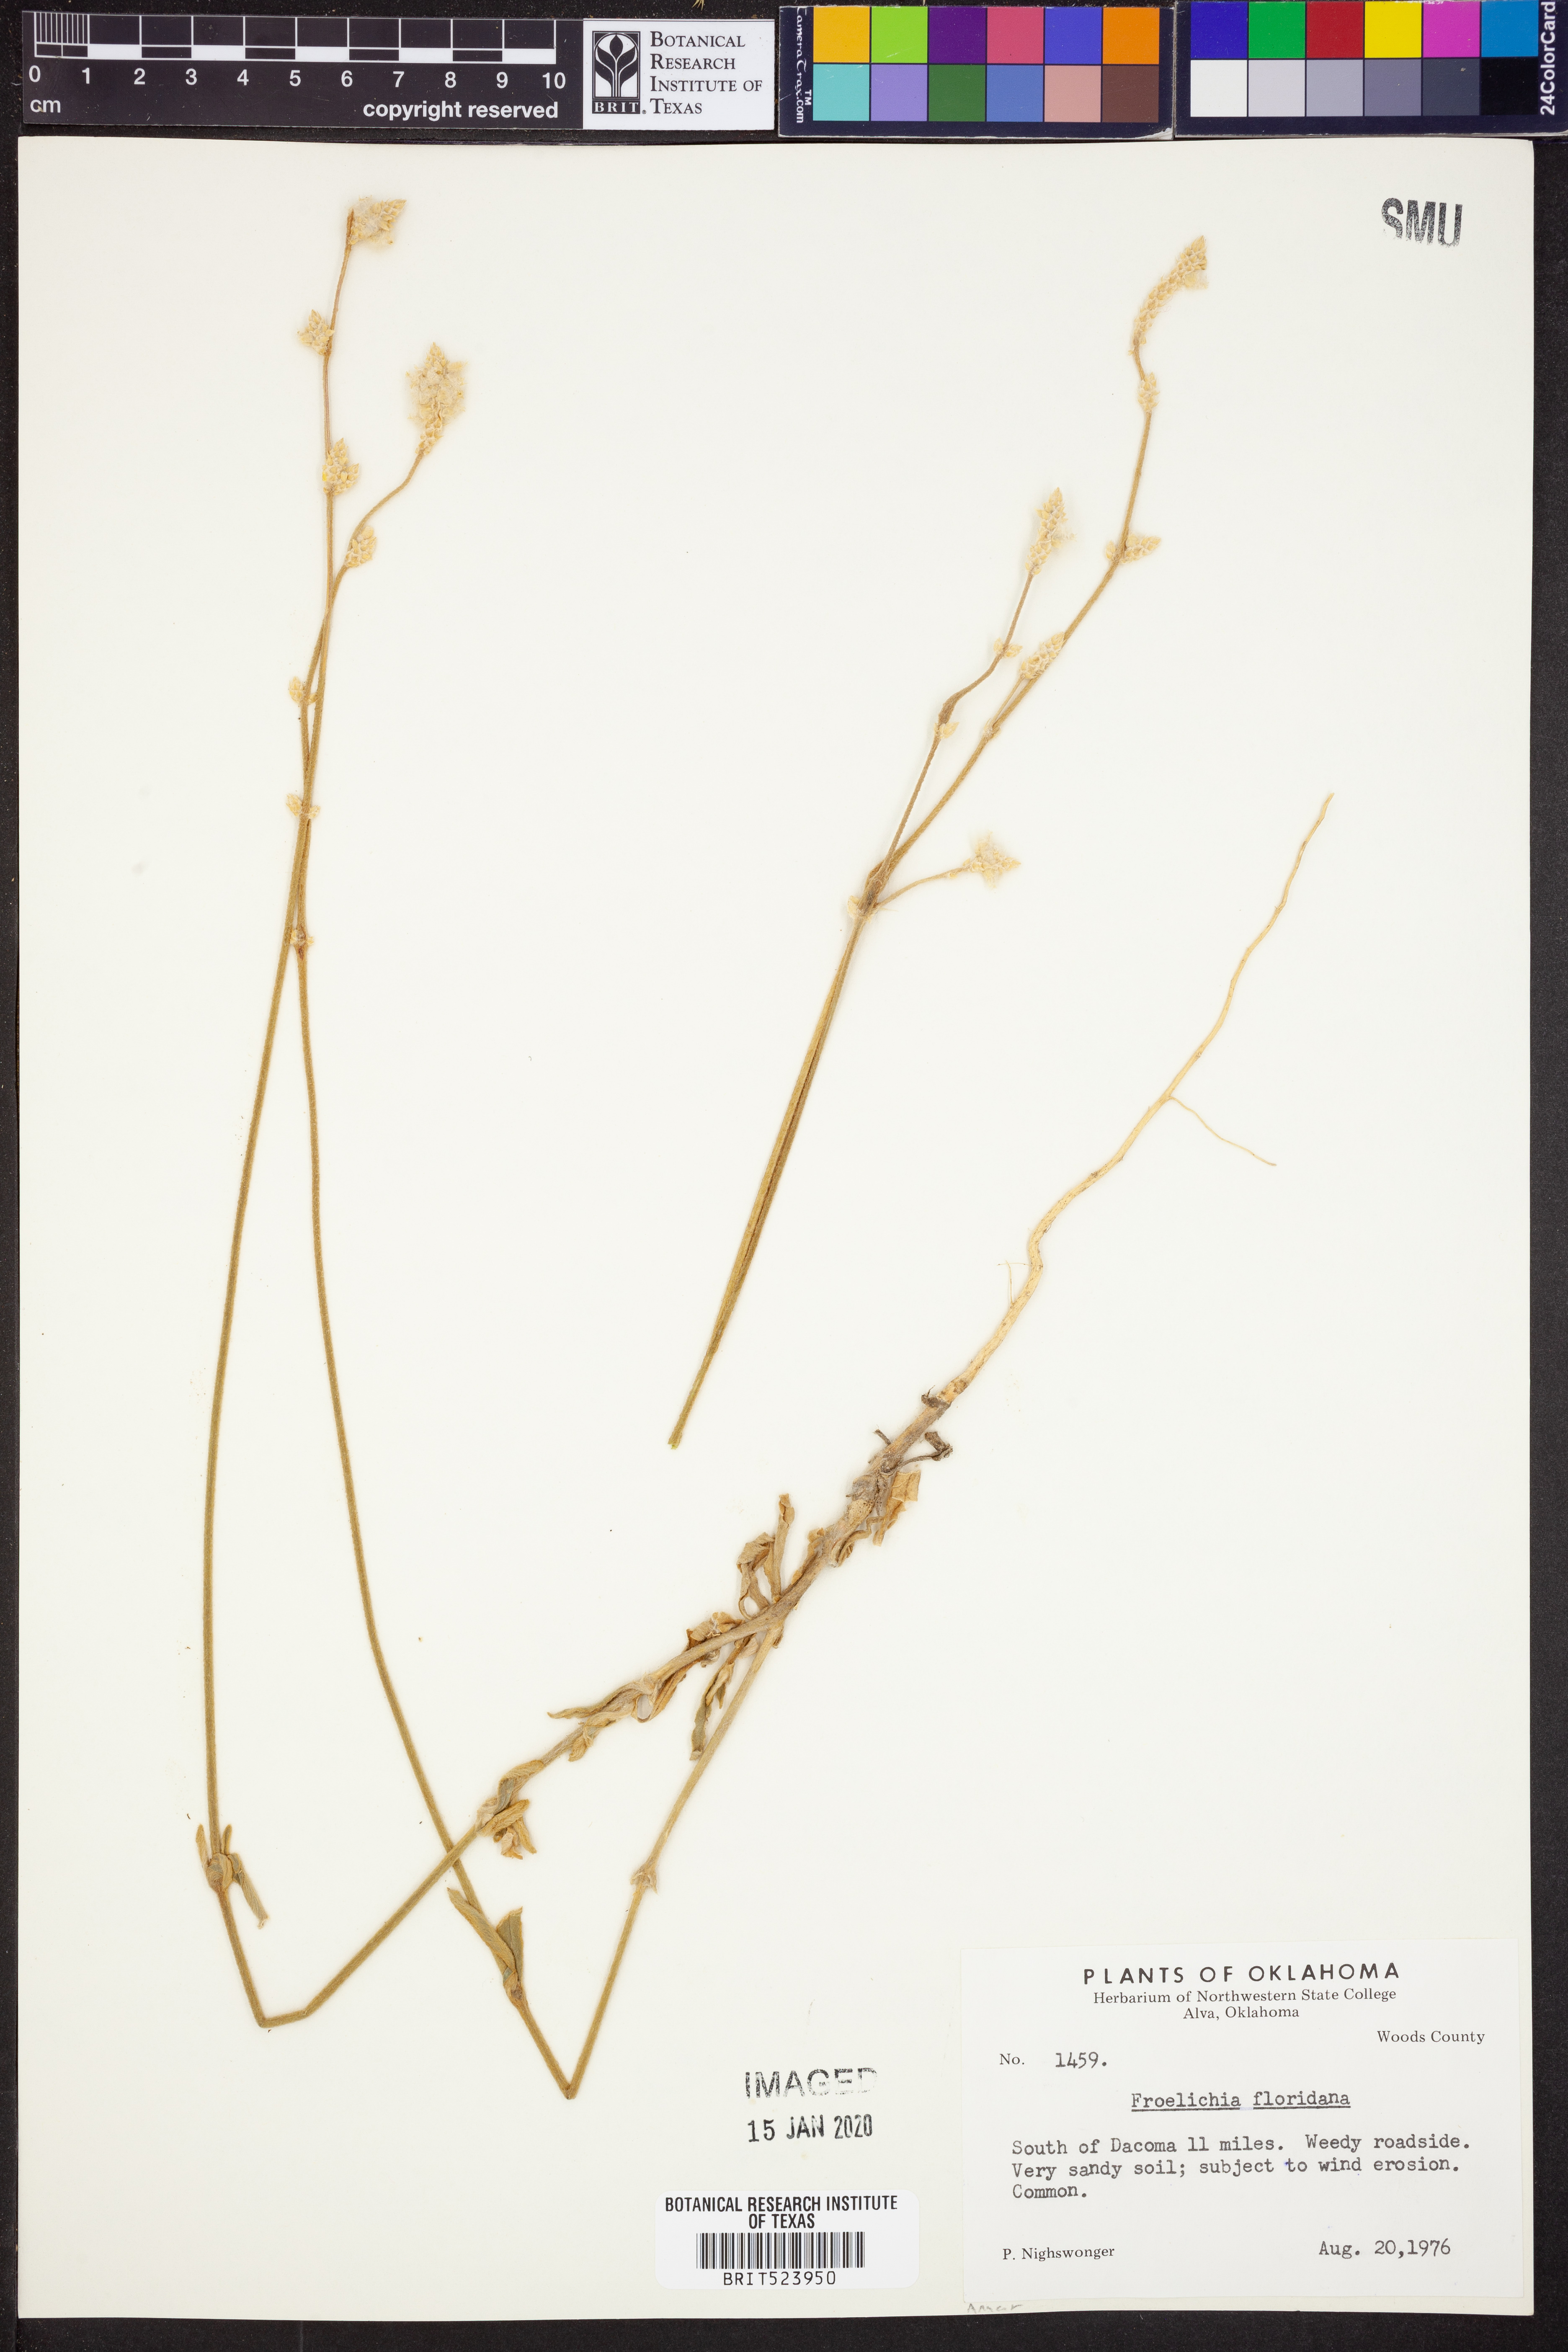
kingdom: Plantae
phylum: Tracheophyta
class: Magnoliopsida
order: Caryophyllales
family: Amaranthaceae
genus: Froelichia
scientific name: Froelichia floridana
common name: Florida snake-cotton
